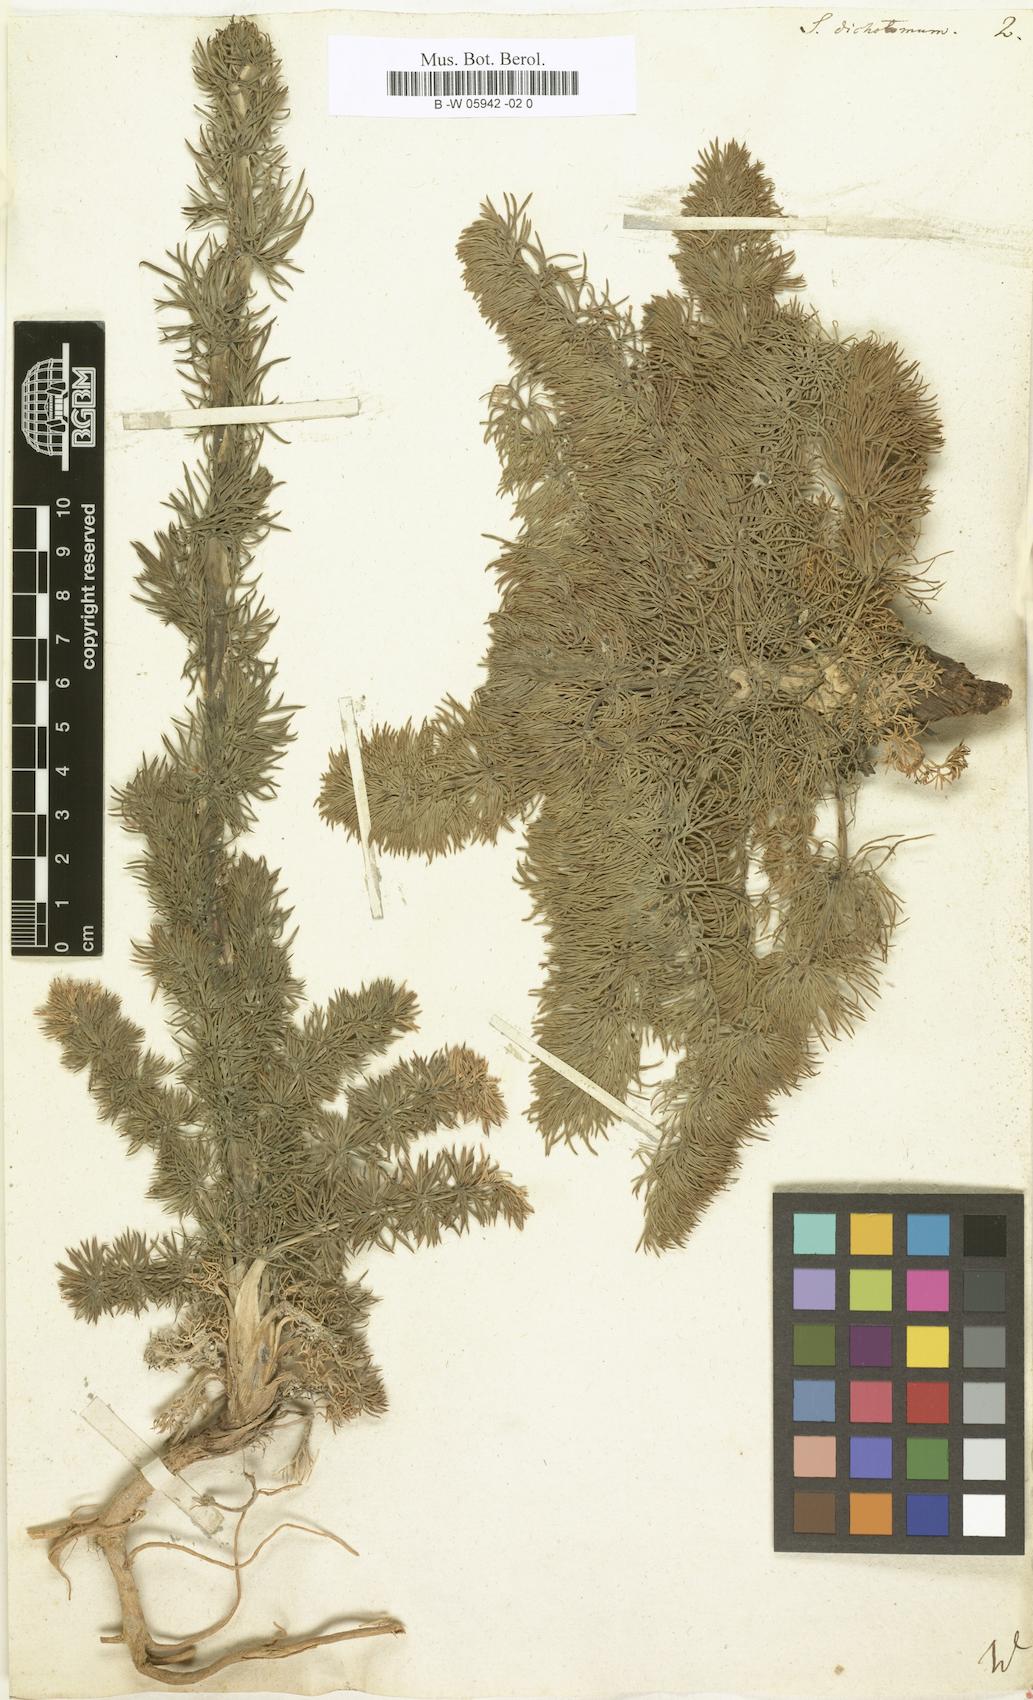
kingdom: Plantae
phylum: Tracheophyta
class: Magnoliopsida
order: Apiales
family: Apiaceae
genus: Seseli
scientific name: Seseli dichotomum
